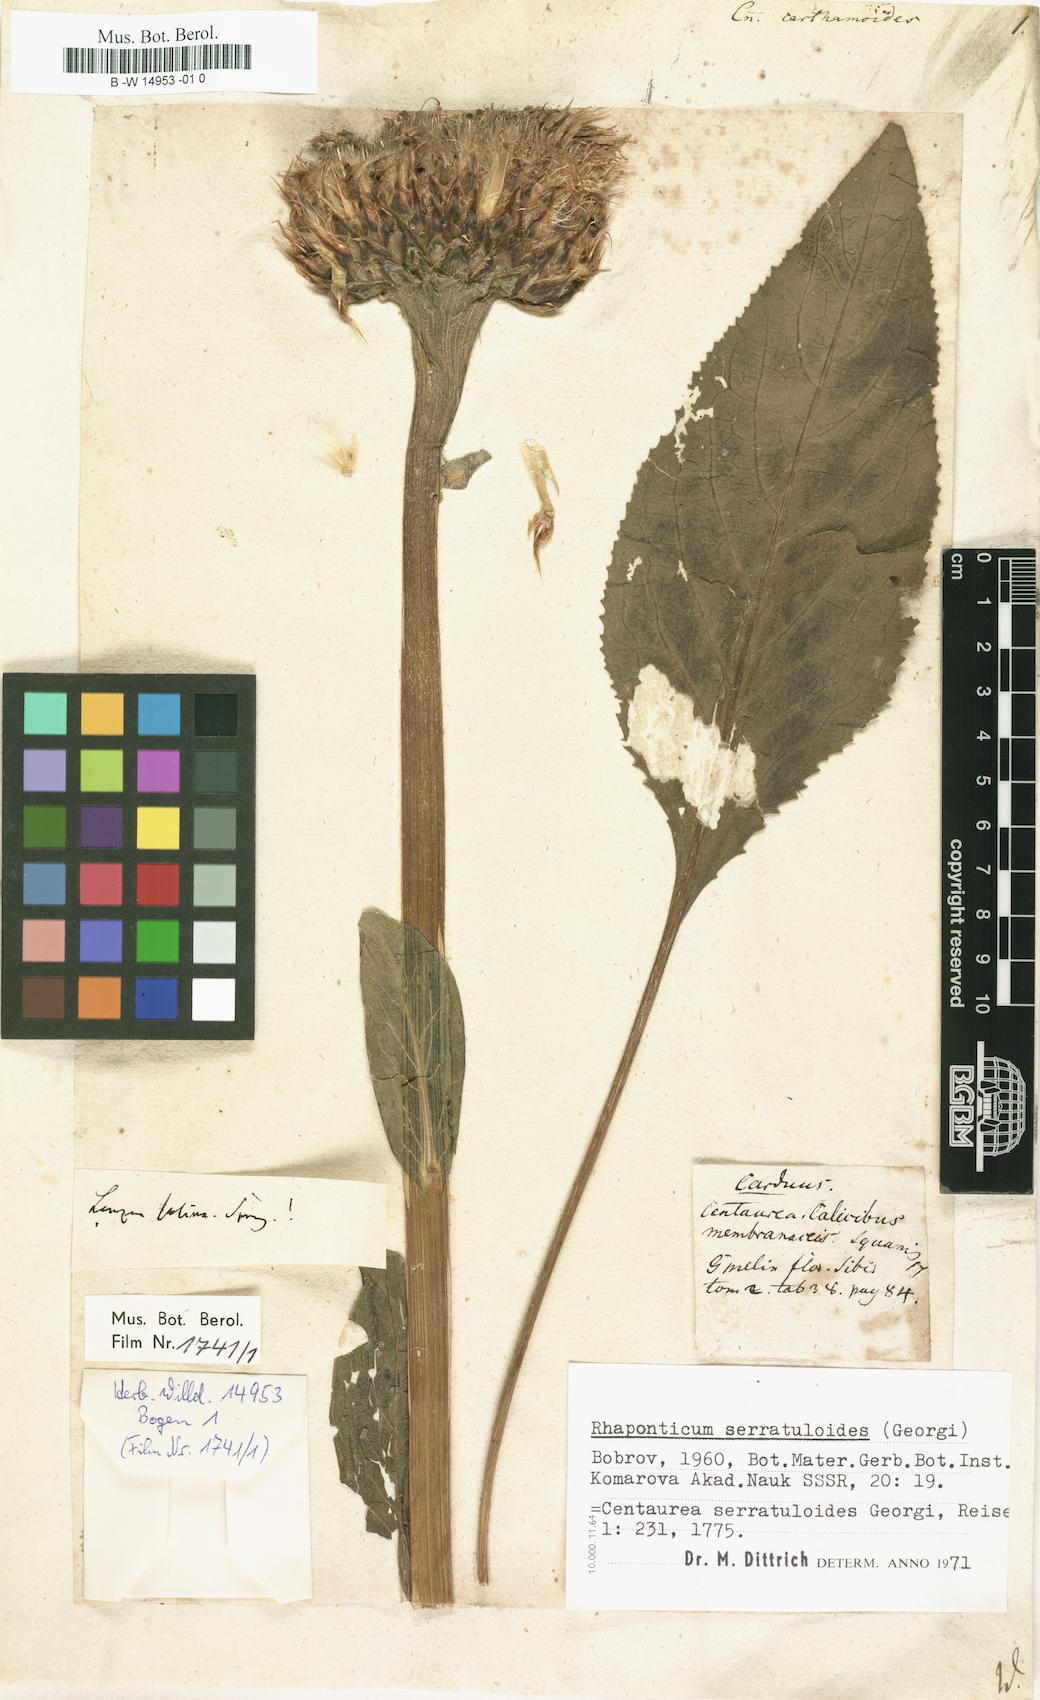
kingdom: Plantae
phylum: Tracheophyta
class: Magnoliopsida
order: Asterales
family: Asteraceae
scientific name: Asteraceae
